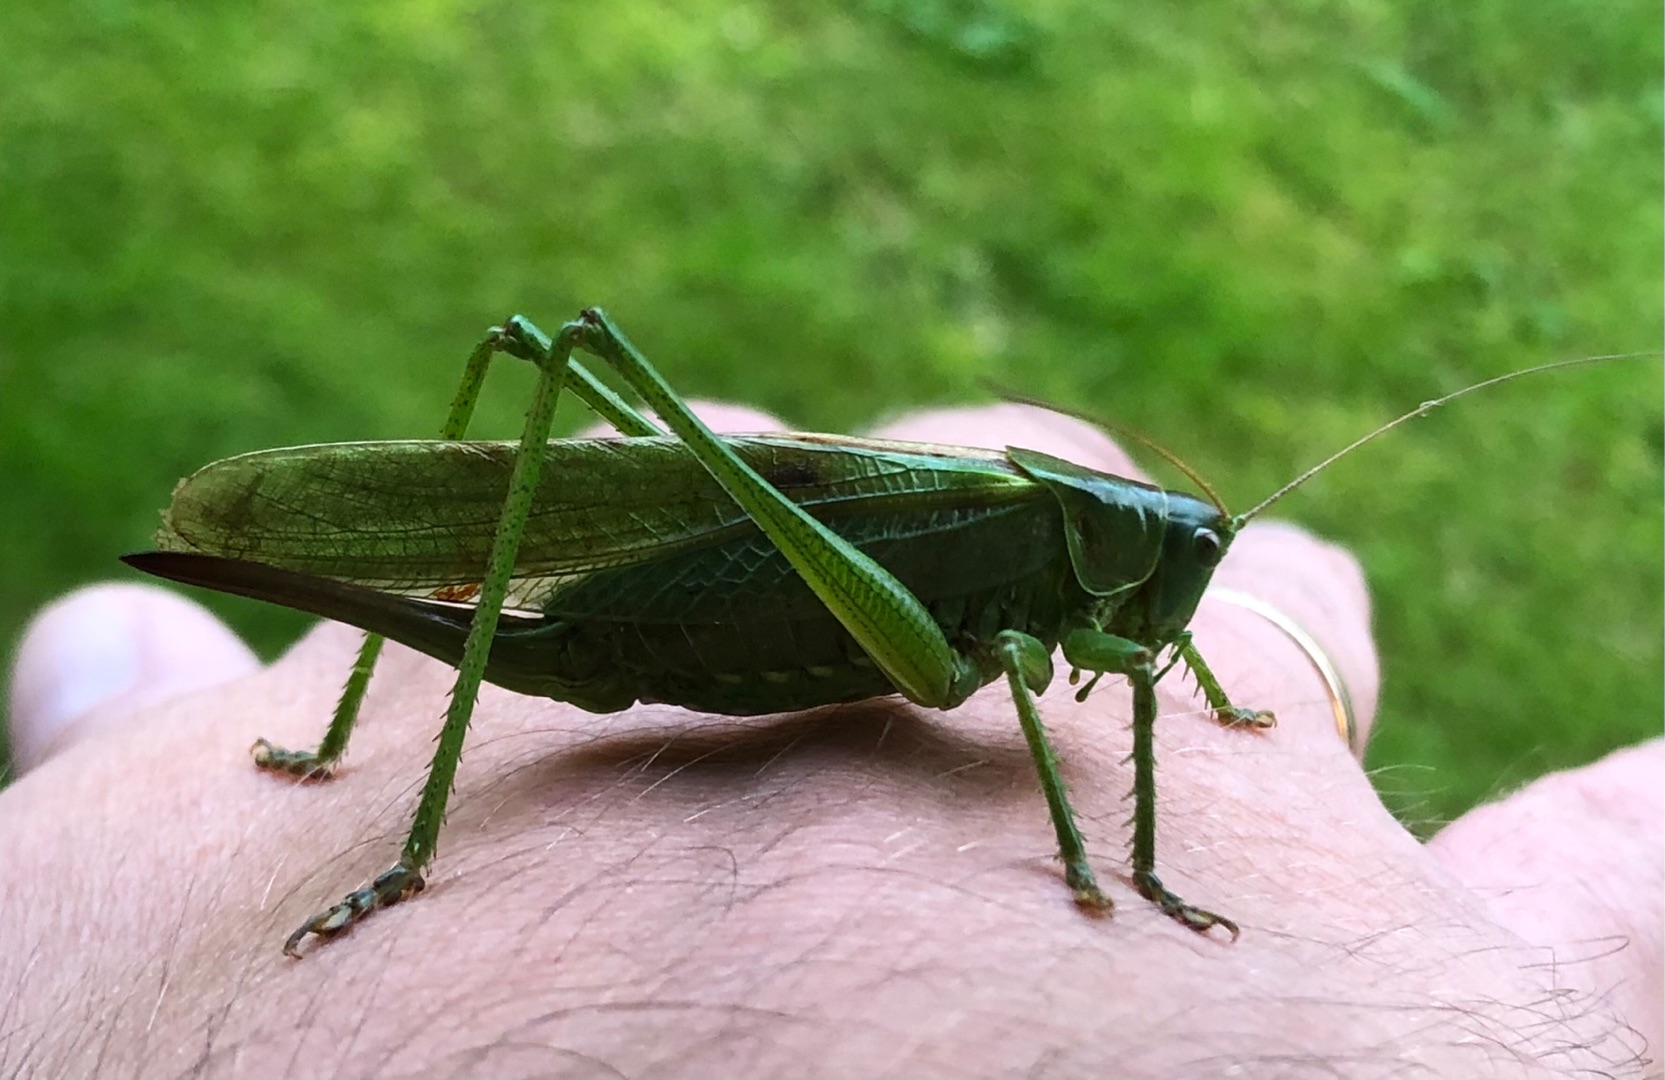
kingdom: Animalia
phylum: Arthropoda
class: Insecta
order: Orthoptera
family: Tettigoniidae
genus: Tettigonia
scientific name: Tettigonia viridissima
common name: Stor grøn løvgræshoppe
